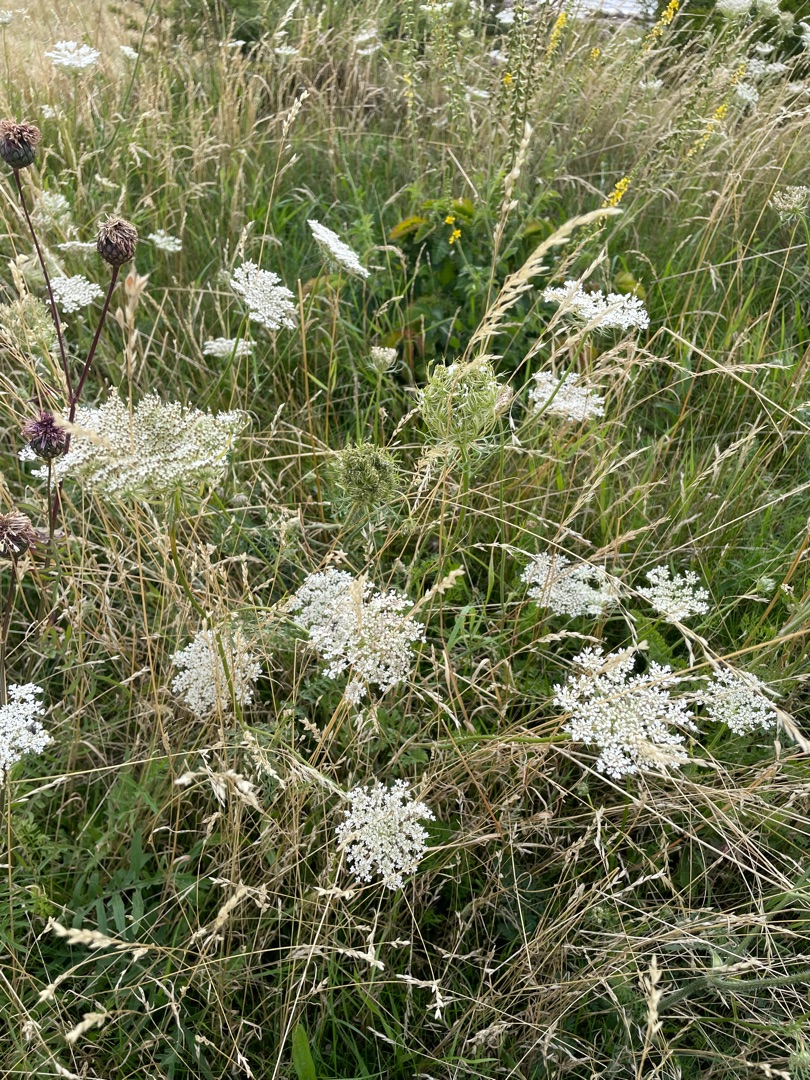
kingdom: Plantae
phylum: Tracheophyta
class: Magnoliopsida
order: Apiales
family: Apiaceae
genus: Daucus
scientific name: Daucus carota
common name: Gulerod
